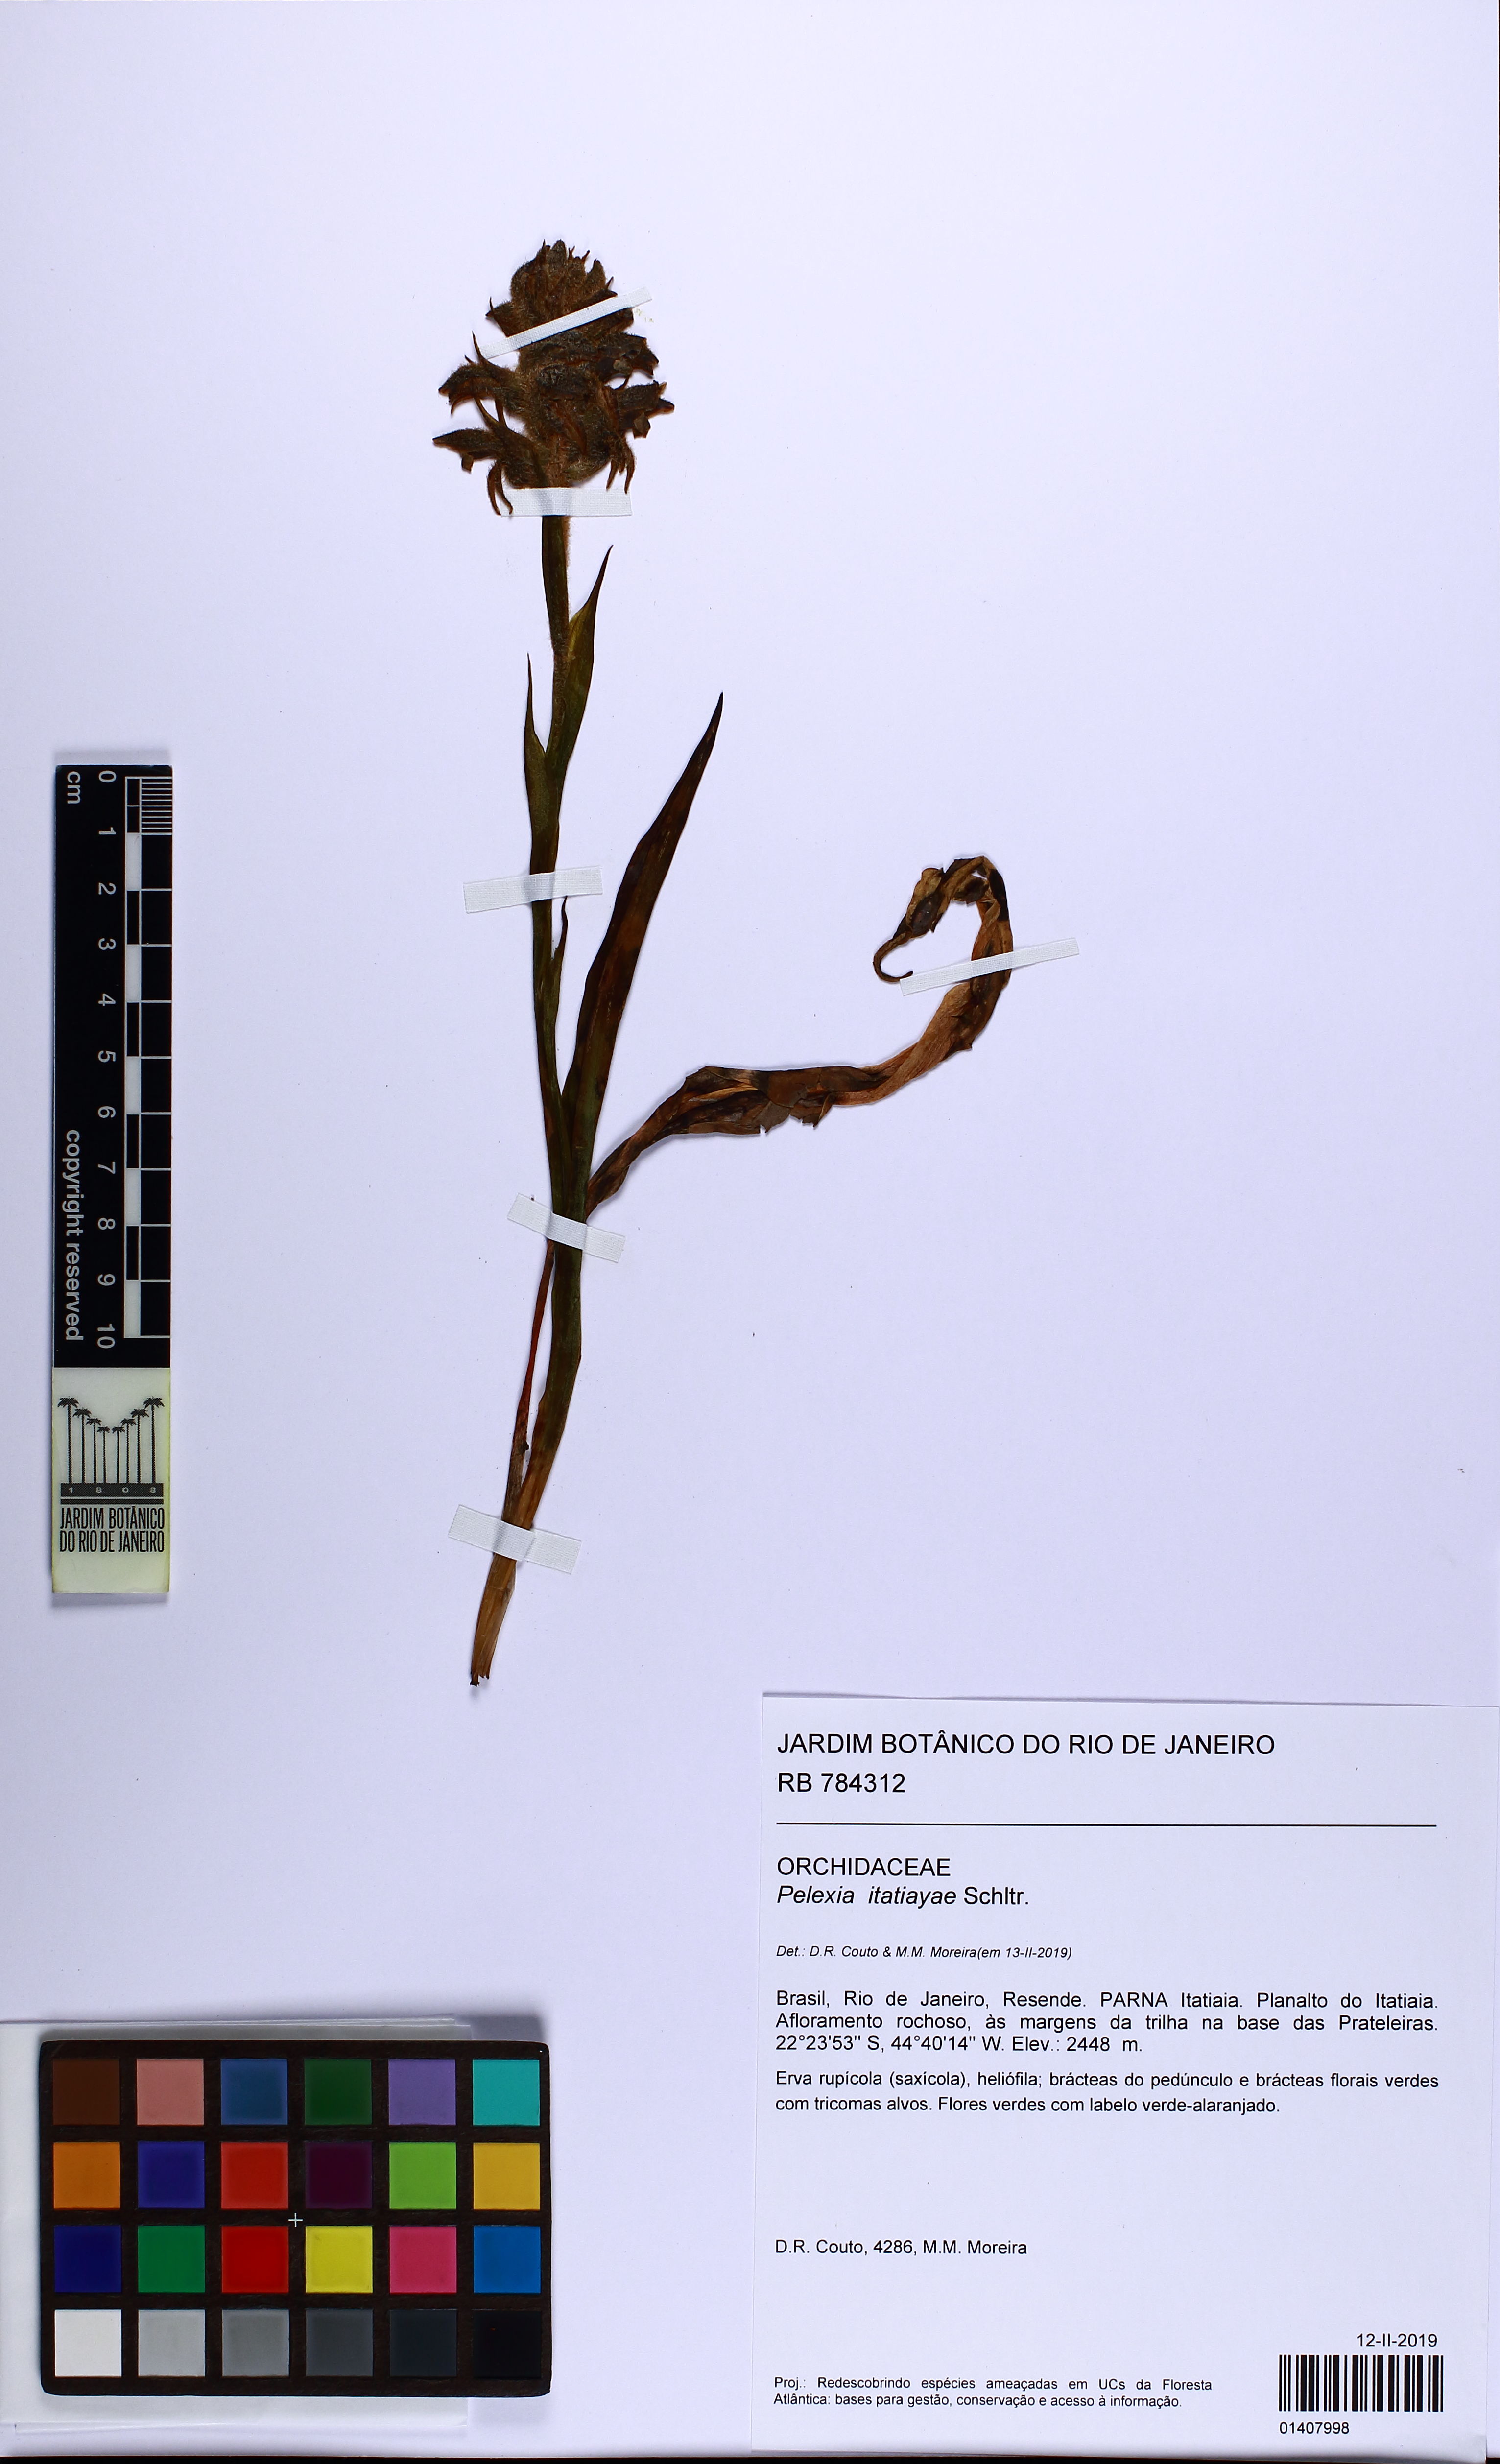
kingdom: Plantae
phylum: Tracheophyta
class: Liliopsida
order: Asparagales
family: Orchidaceae
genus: Pelexia
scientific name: Pelexia itatiayae
